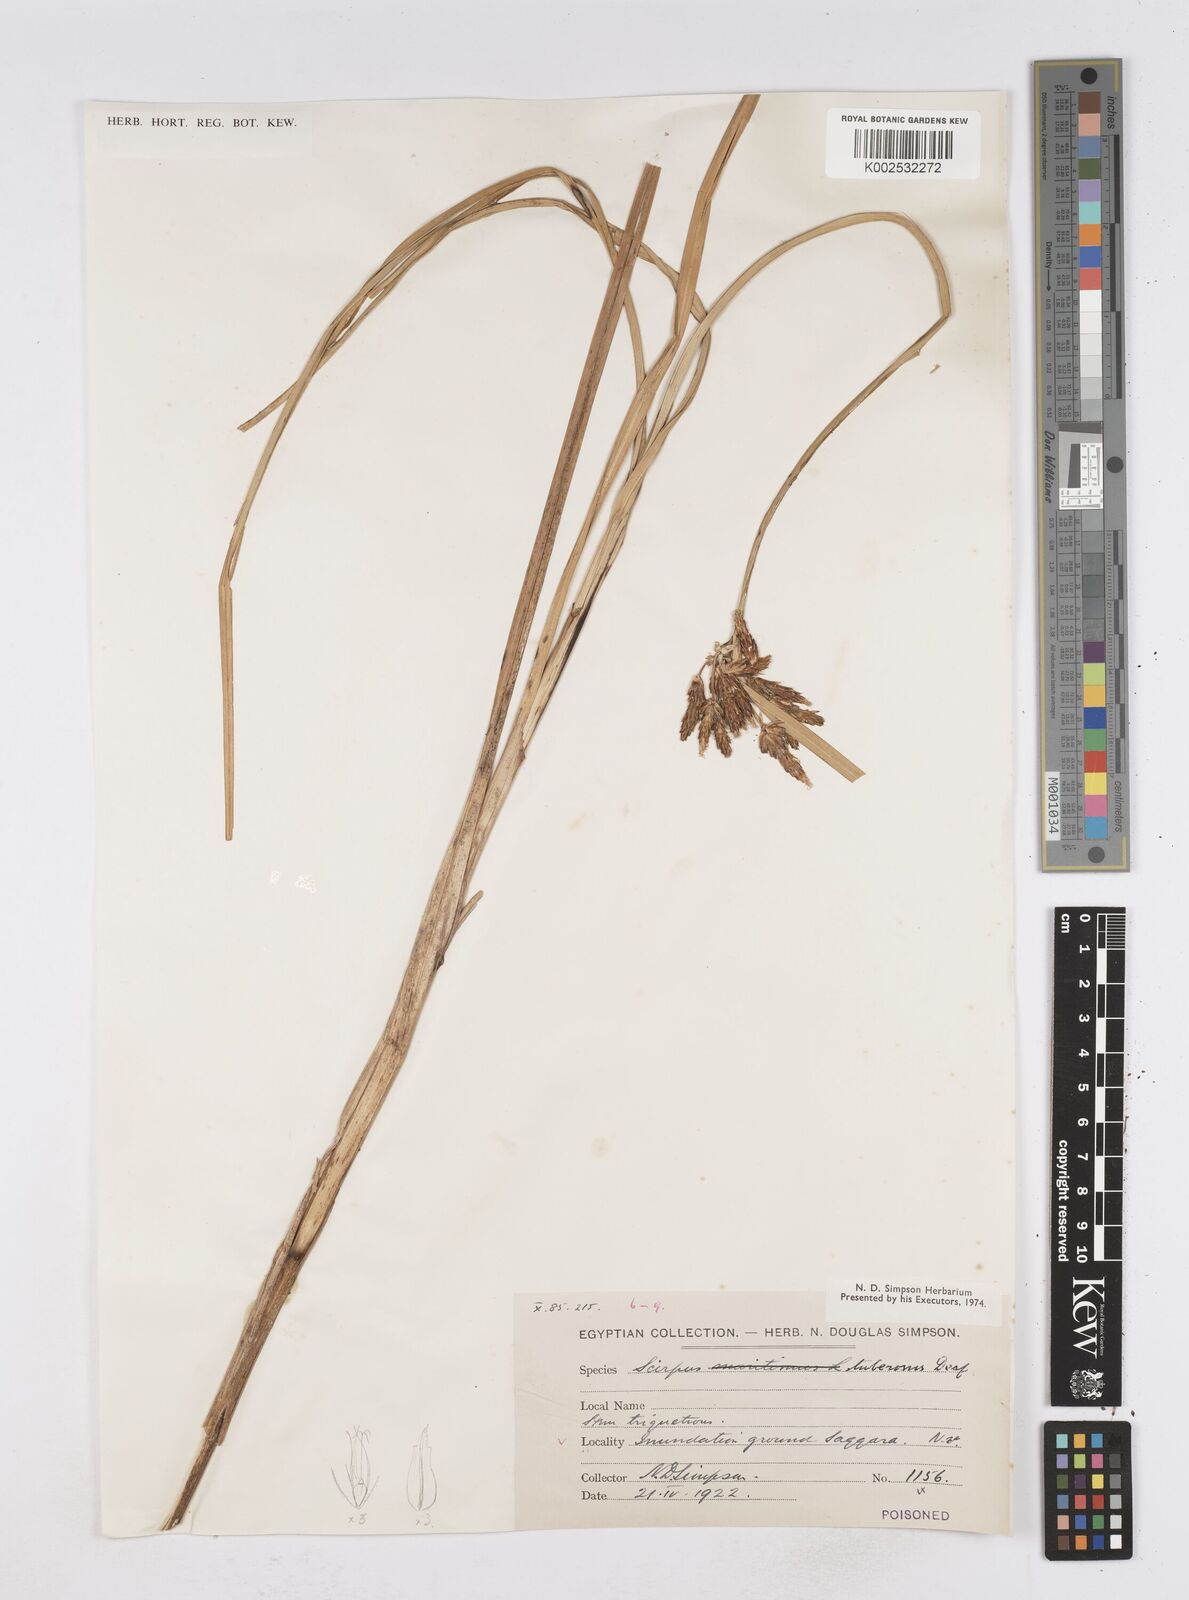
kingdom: Plantae
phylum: Tracheophyta
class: Liliopsida
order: Poales
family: Cyperaceae
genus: Bolboschoenus
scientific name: Bolboschoenus maritimus
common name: Sea club-rush
